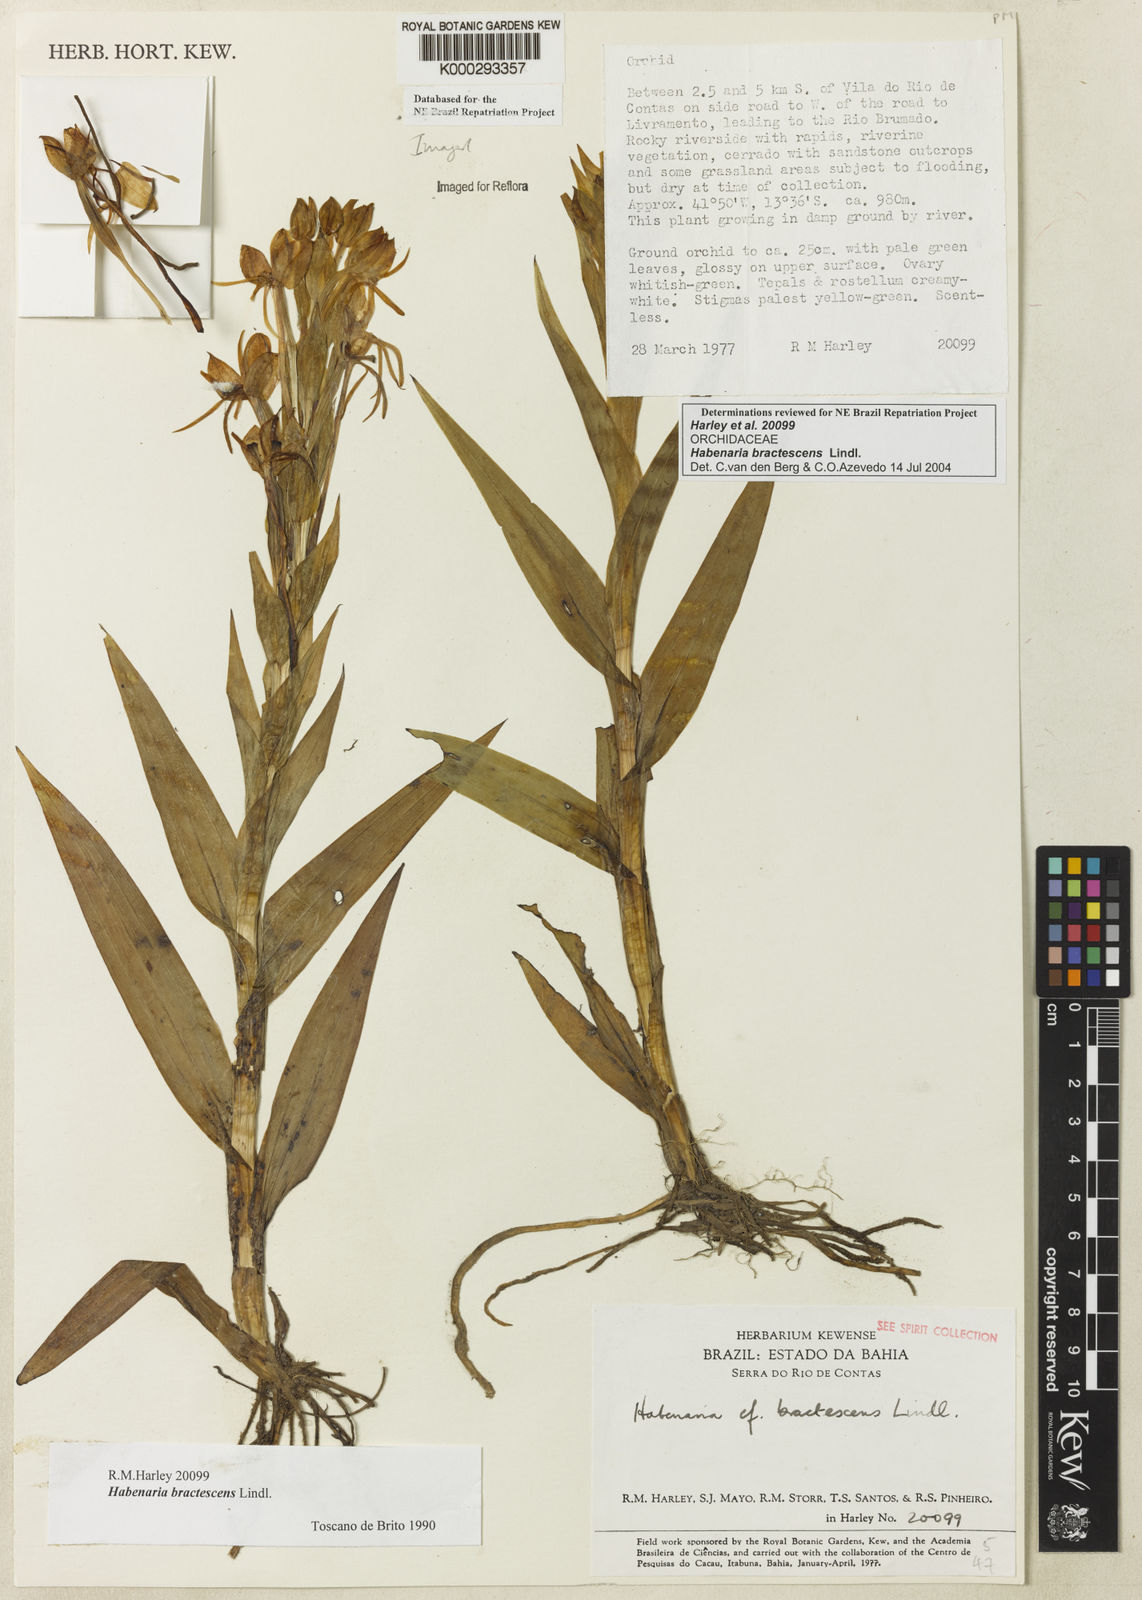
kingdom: Plantae
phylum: Tracheophyta
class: Liliopsida
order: Asparagales
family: Orchidaceae
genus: Habenaria
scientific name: Habenaria bractescens
